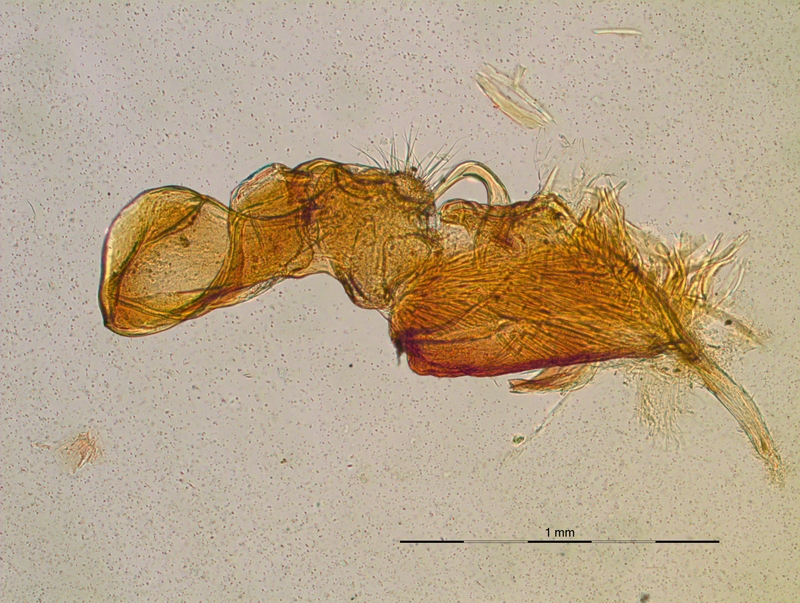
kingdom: Animalia
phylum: Arthropoda
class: Diplopoda
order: Polydesmida
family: Chelodesmidae
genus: Camptomorpha
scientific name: Camptomorpha
